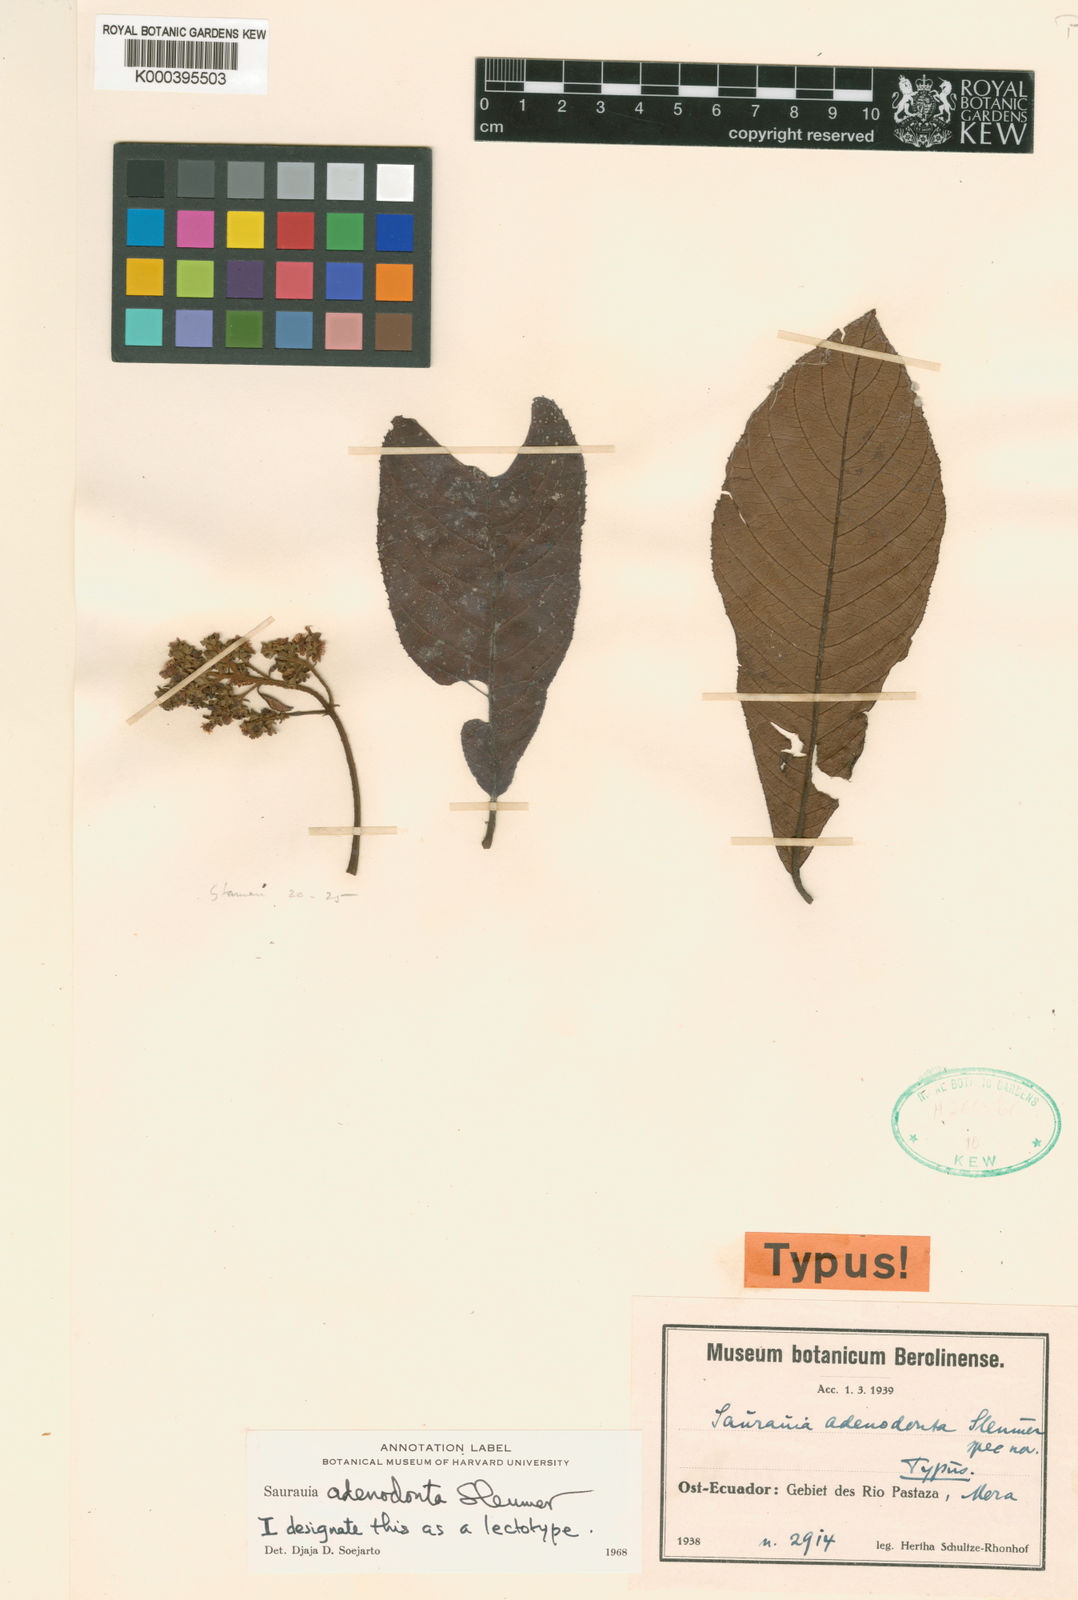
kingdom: Plantae
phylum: Tracheophyta
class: Magnoliopsida
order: Ericales
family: Actinidiaceae
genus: Saurauia
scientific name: Saurauia adenodonta
